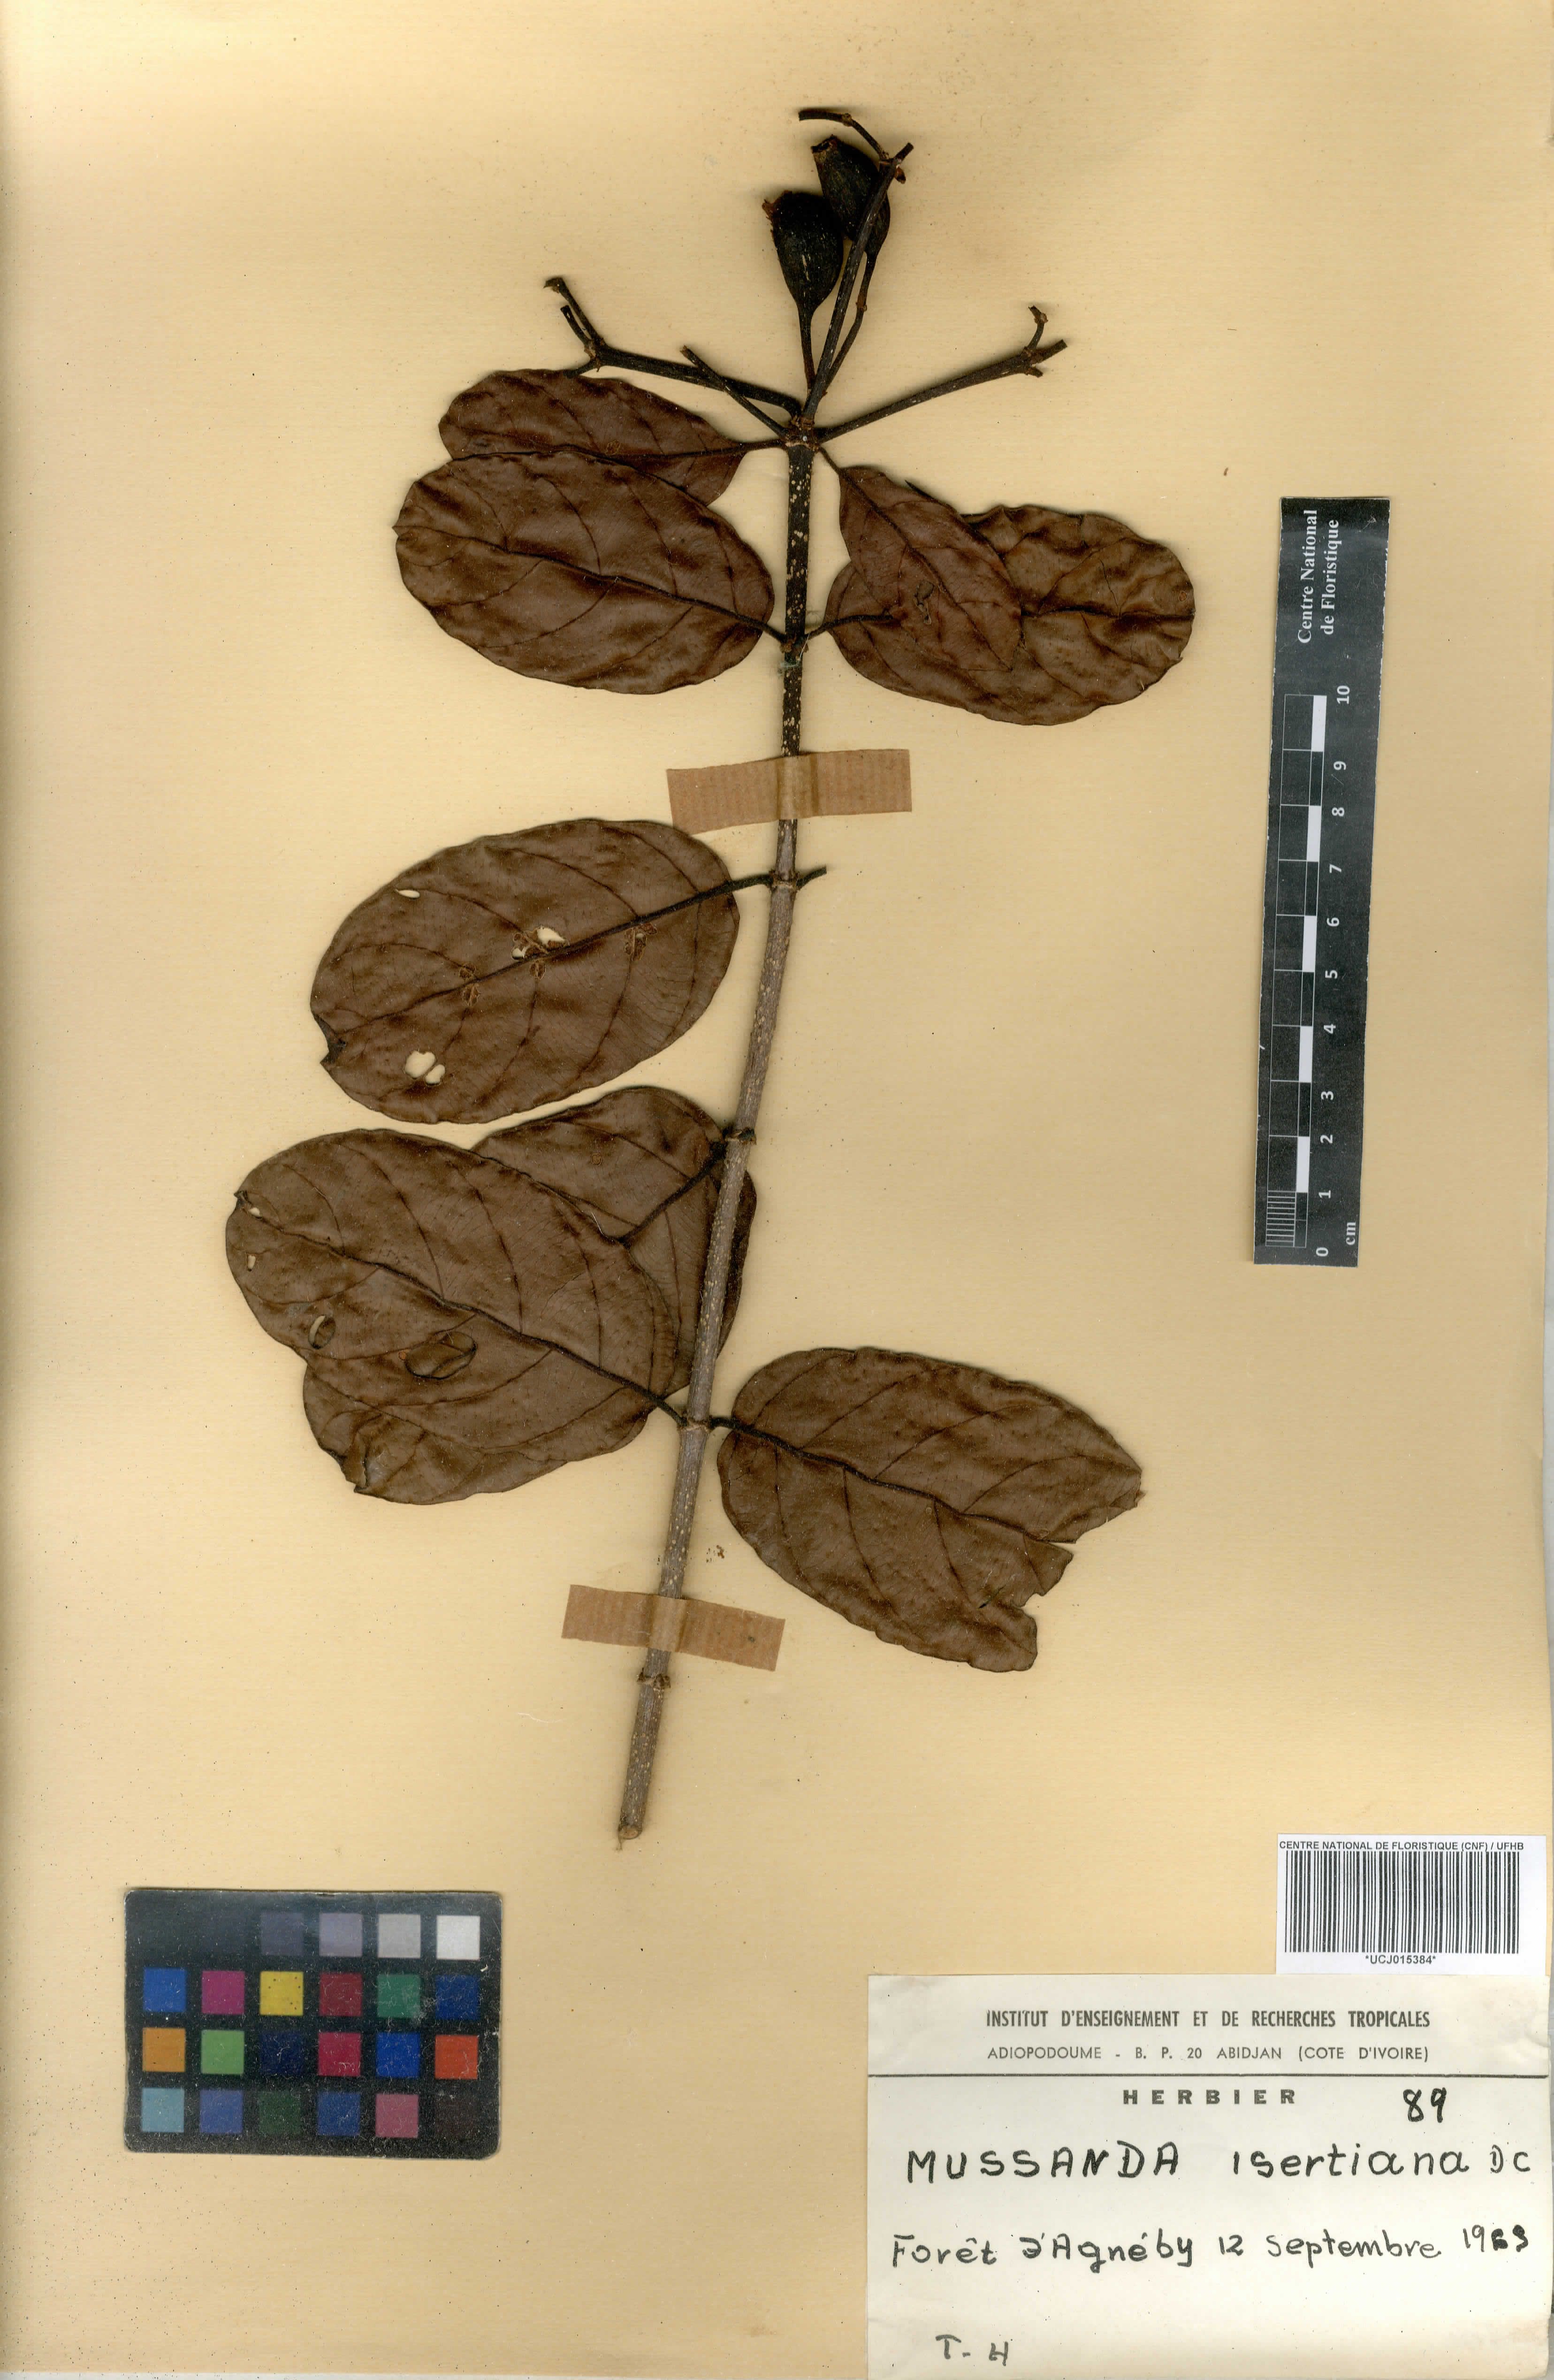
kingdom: Plantae
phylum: Tracheophyta
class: Magnoliopsida
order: Gentianales
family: Rubiaceae
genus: Mussaenda
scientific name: Mussaenda isertiana
